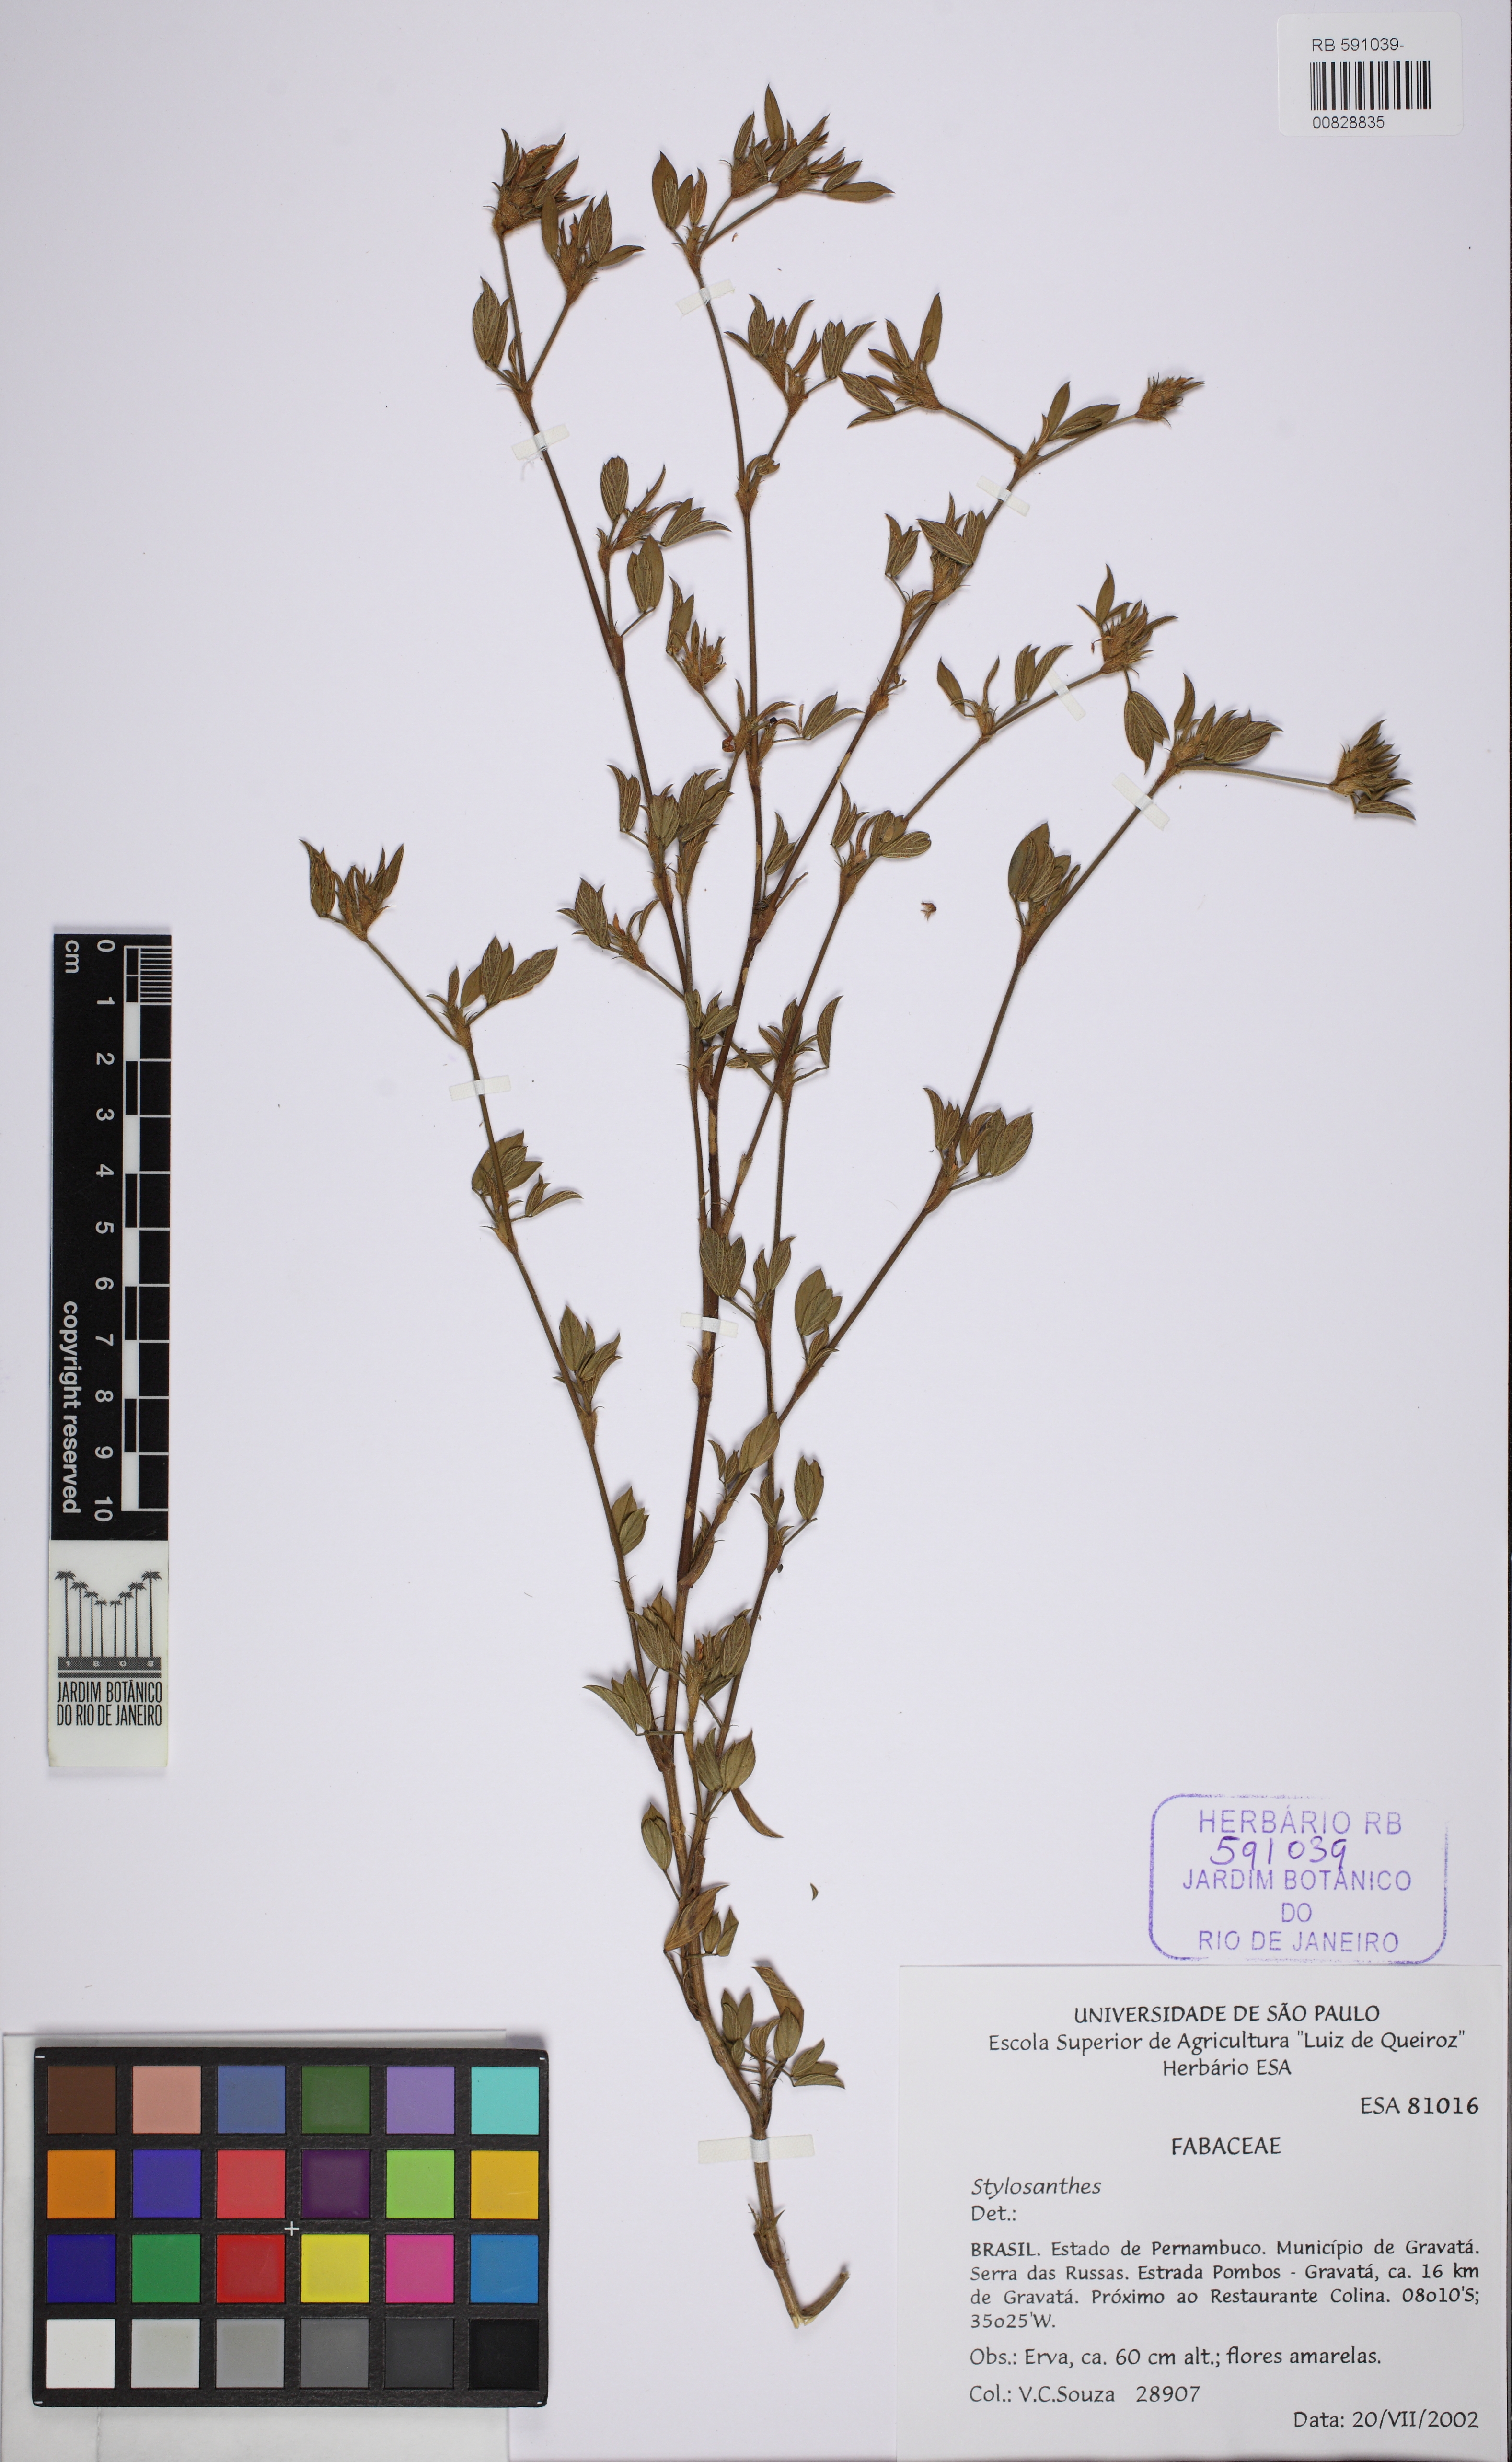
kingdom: Plantae
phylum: Tracheophyta
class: Magnoliopsida
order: Fabales
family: Fabaceae
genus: Stylosanthes
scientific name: Stylosanthes scabra
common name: Pencilflower
